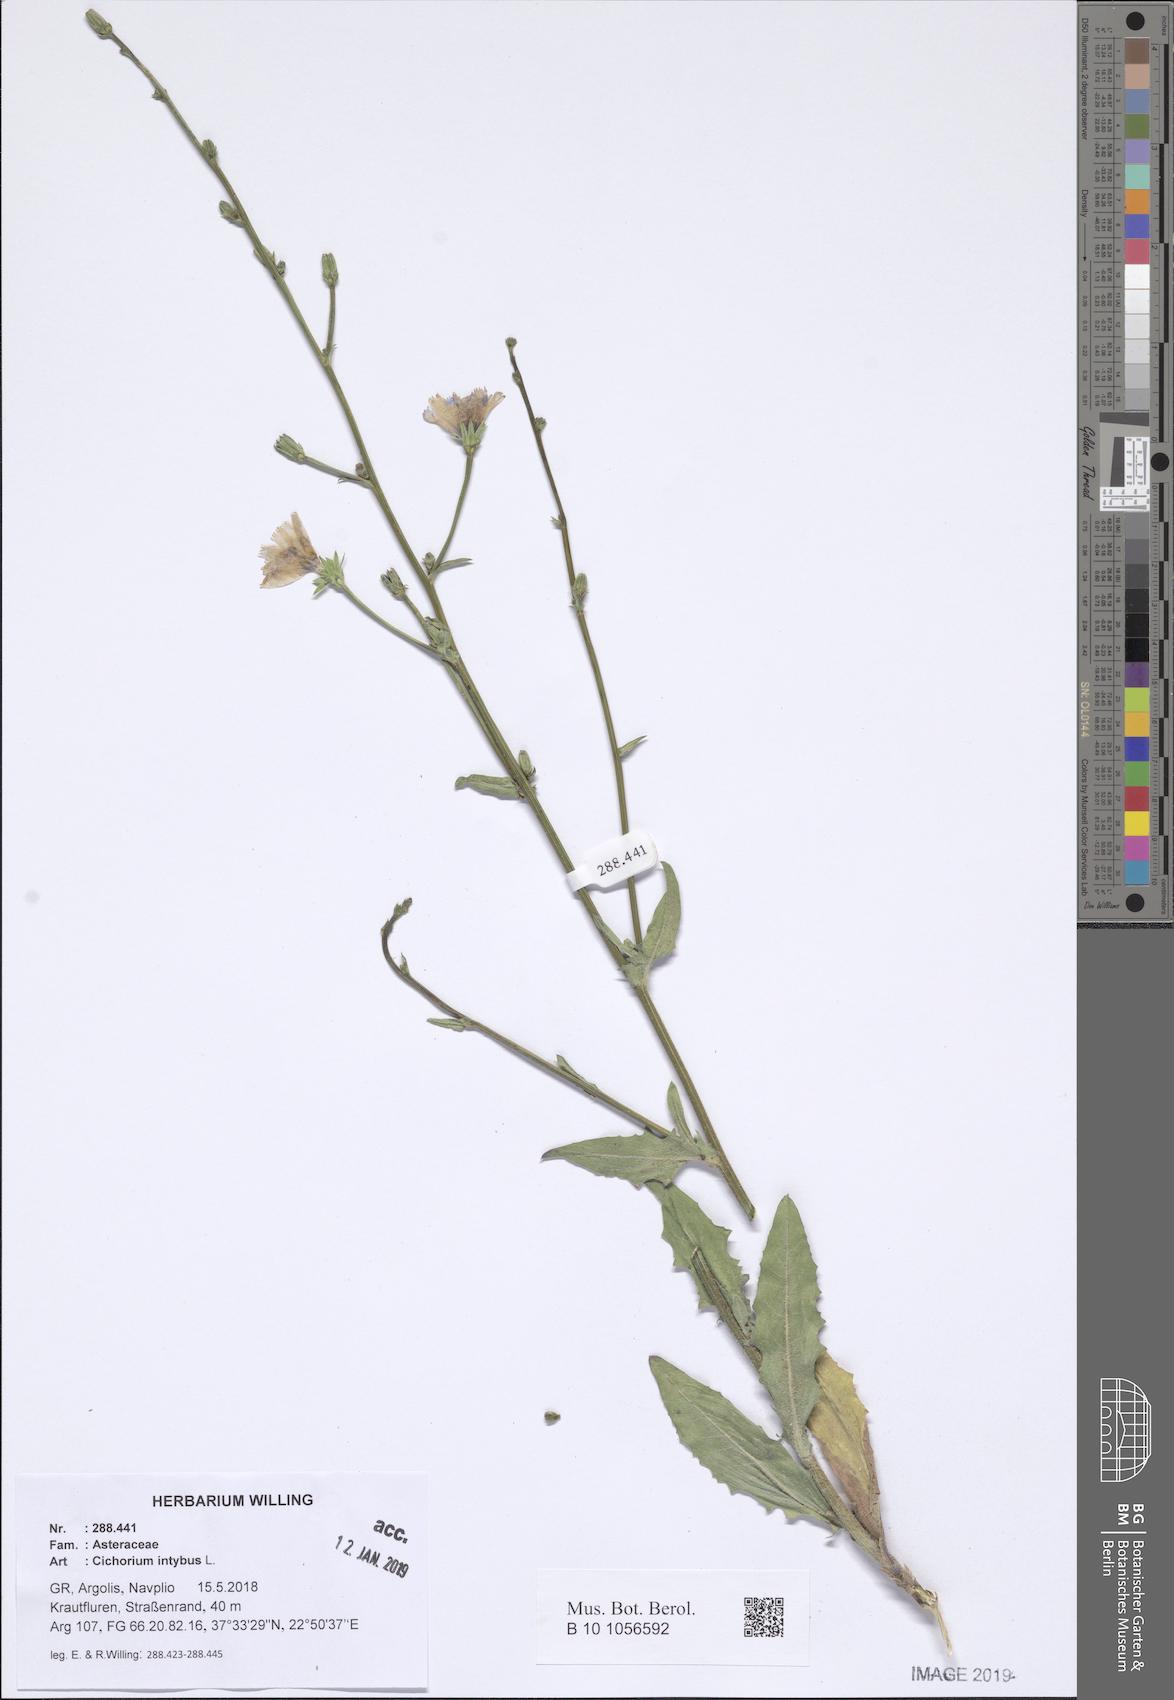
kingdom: Plantae
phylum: Tracheophyta
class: Magnoliopsida
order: Asterales
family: Asteraceae
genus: Cichorium
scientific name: Cichorium intybus
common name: Chicory
